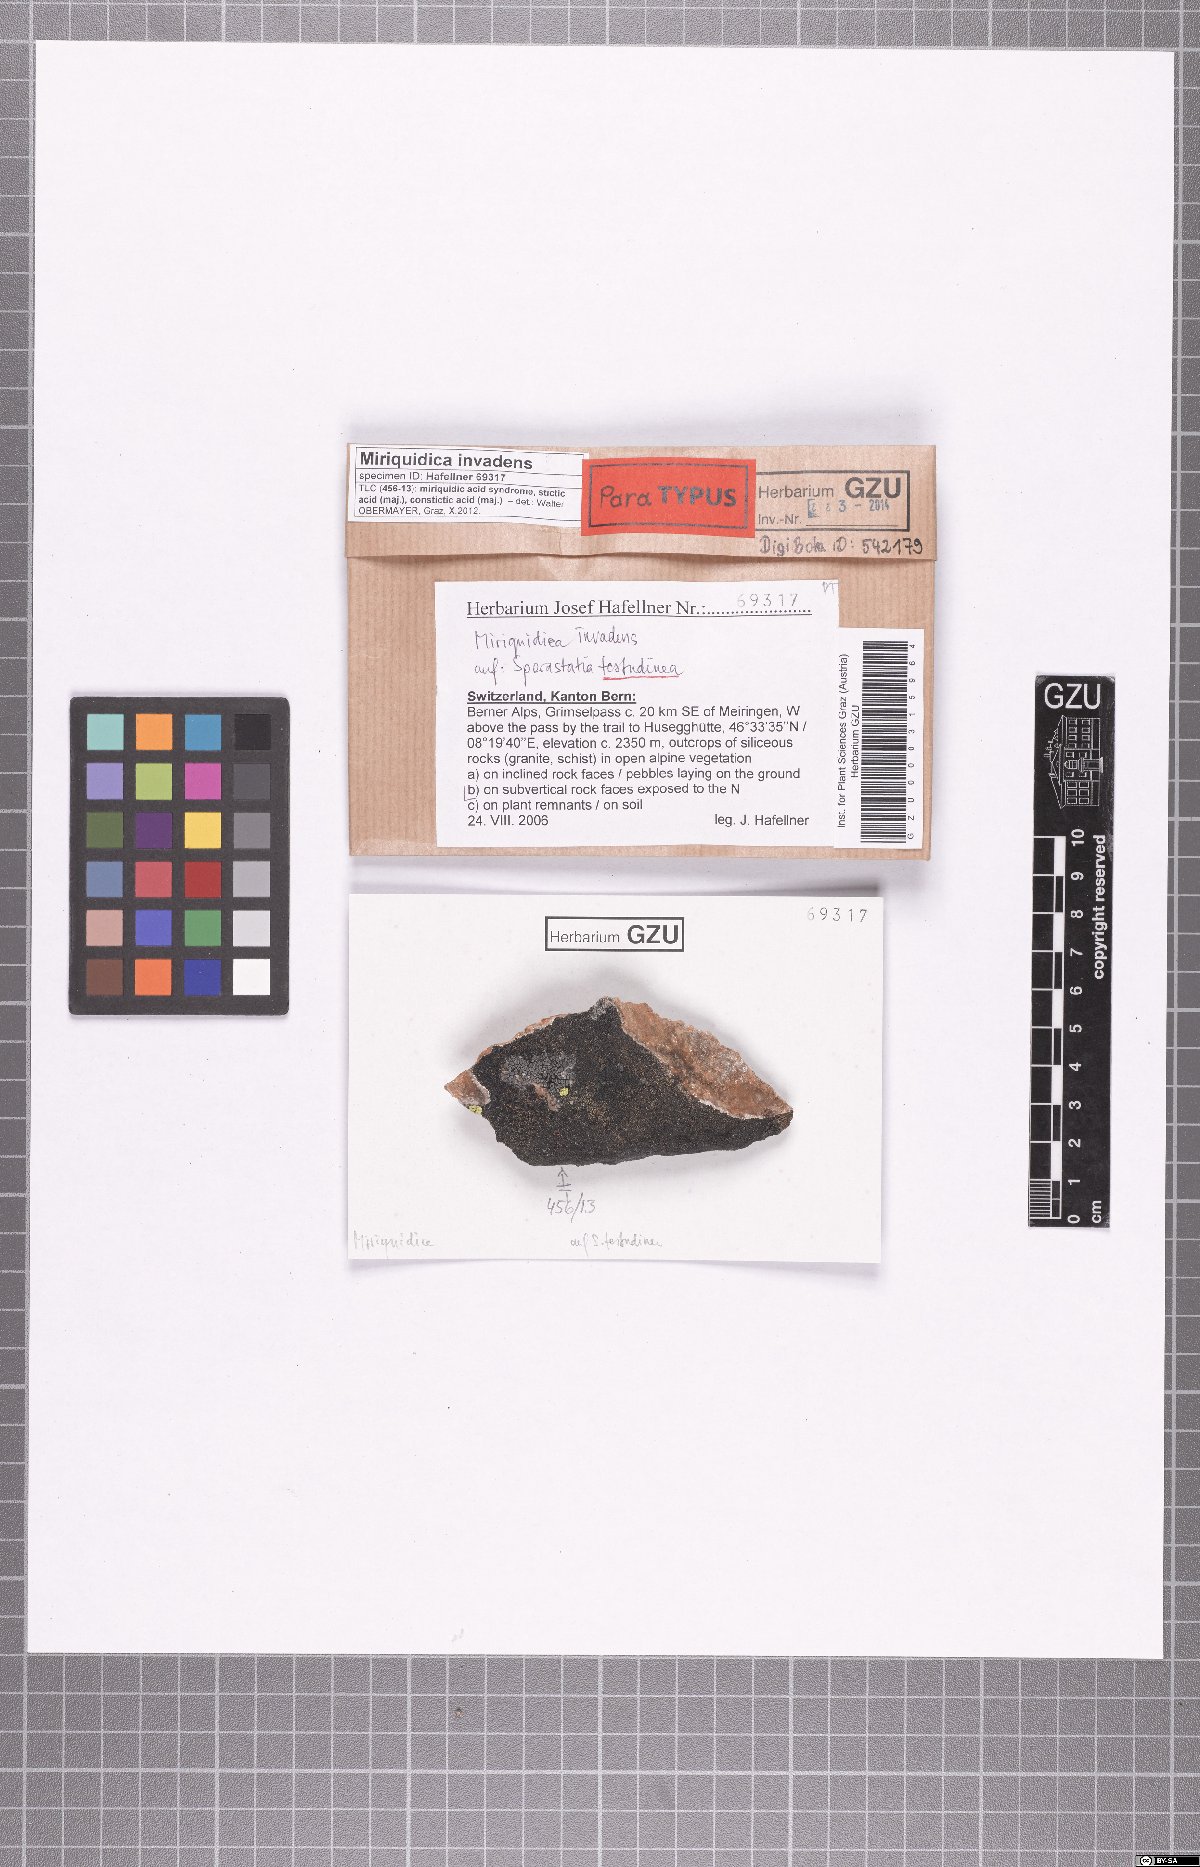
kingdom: Fungi
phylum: Ascomycota
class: Lecanoromycetes
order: Lecanorales
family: Lecanoraceae
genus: Miriquidica
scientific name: Miriquidica invadens
